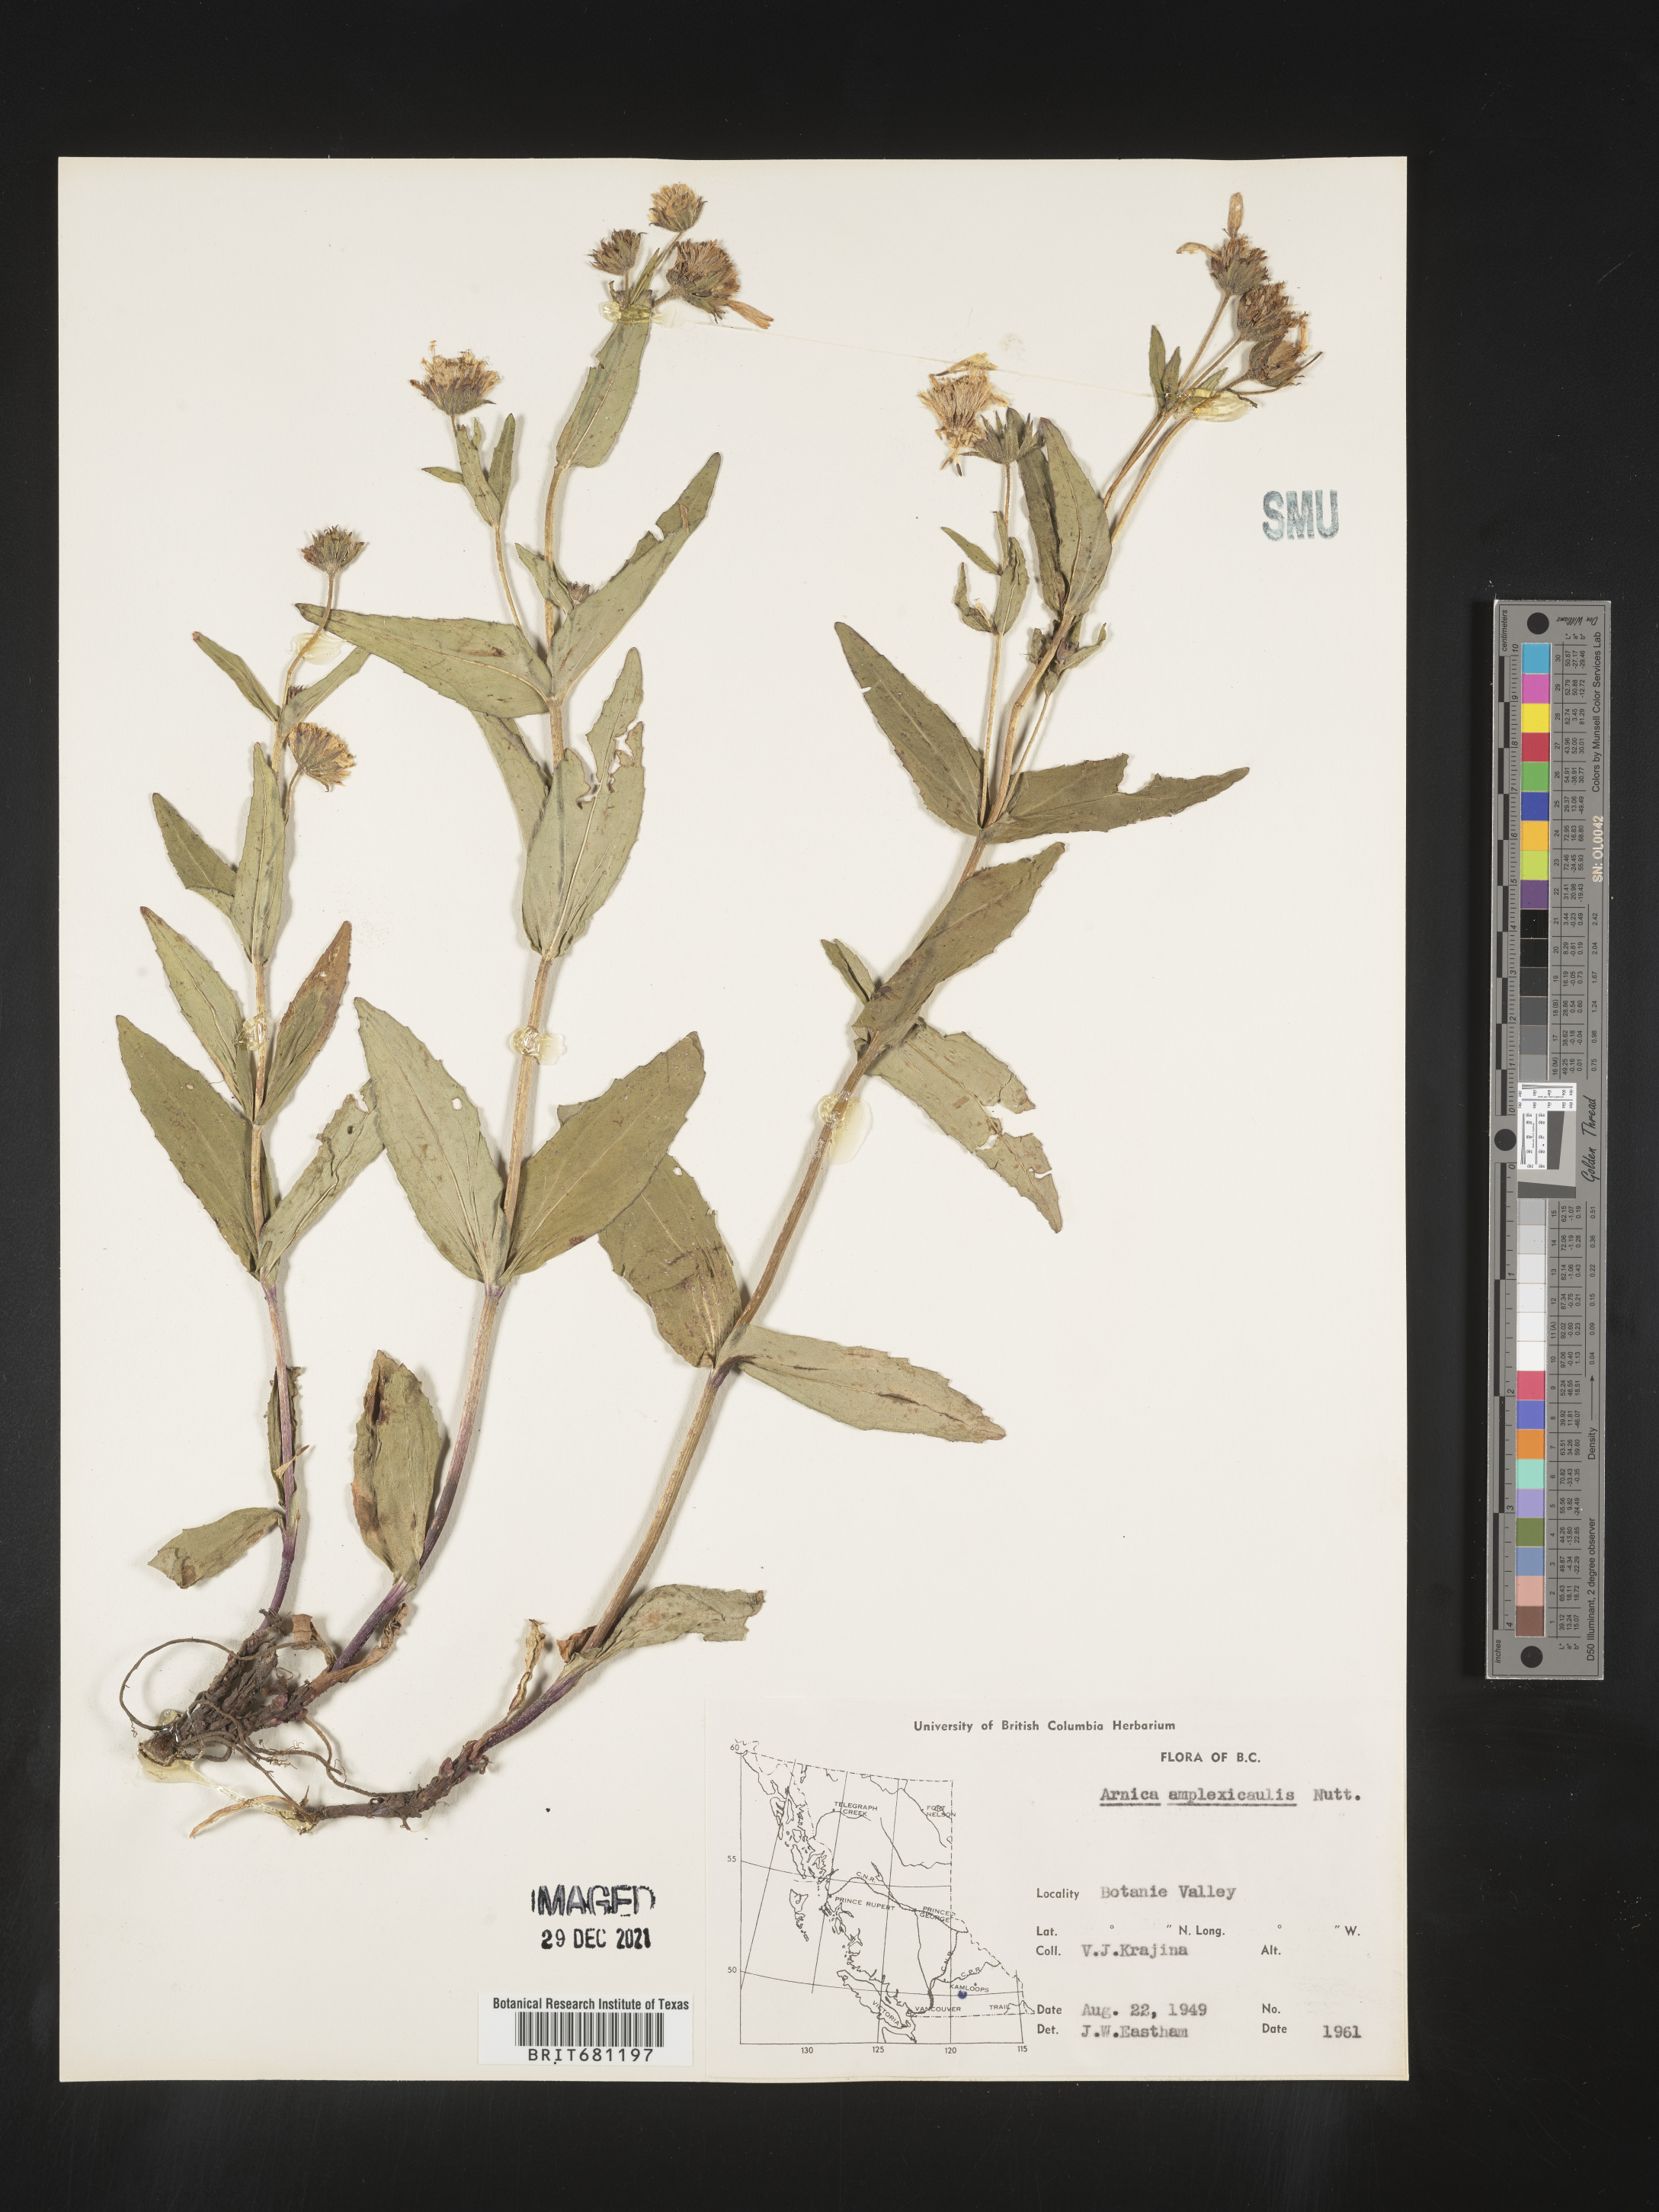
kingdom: Plantae
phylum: Tracheophyta
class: Magnoliopsida
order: Asterales
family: Asteraceae
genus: Arnica
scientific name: Arnica lanceolata
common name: Lance-leaved arnica
